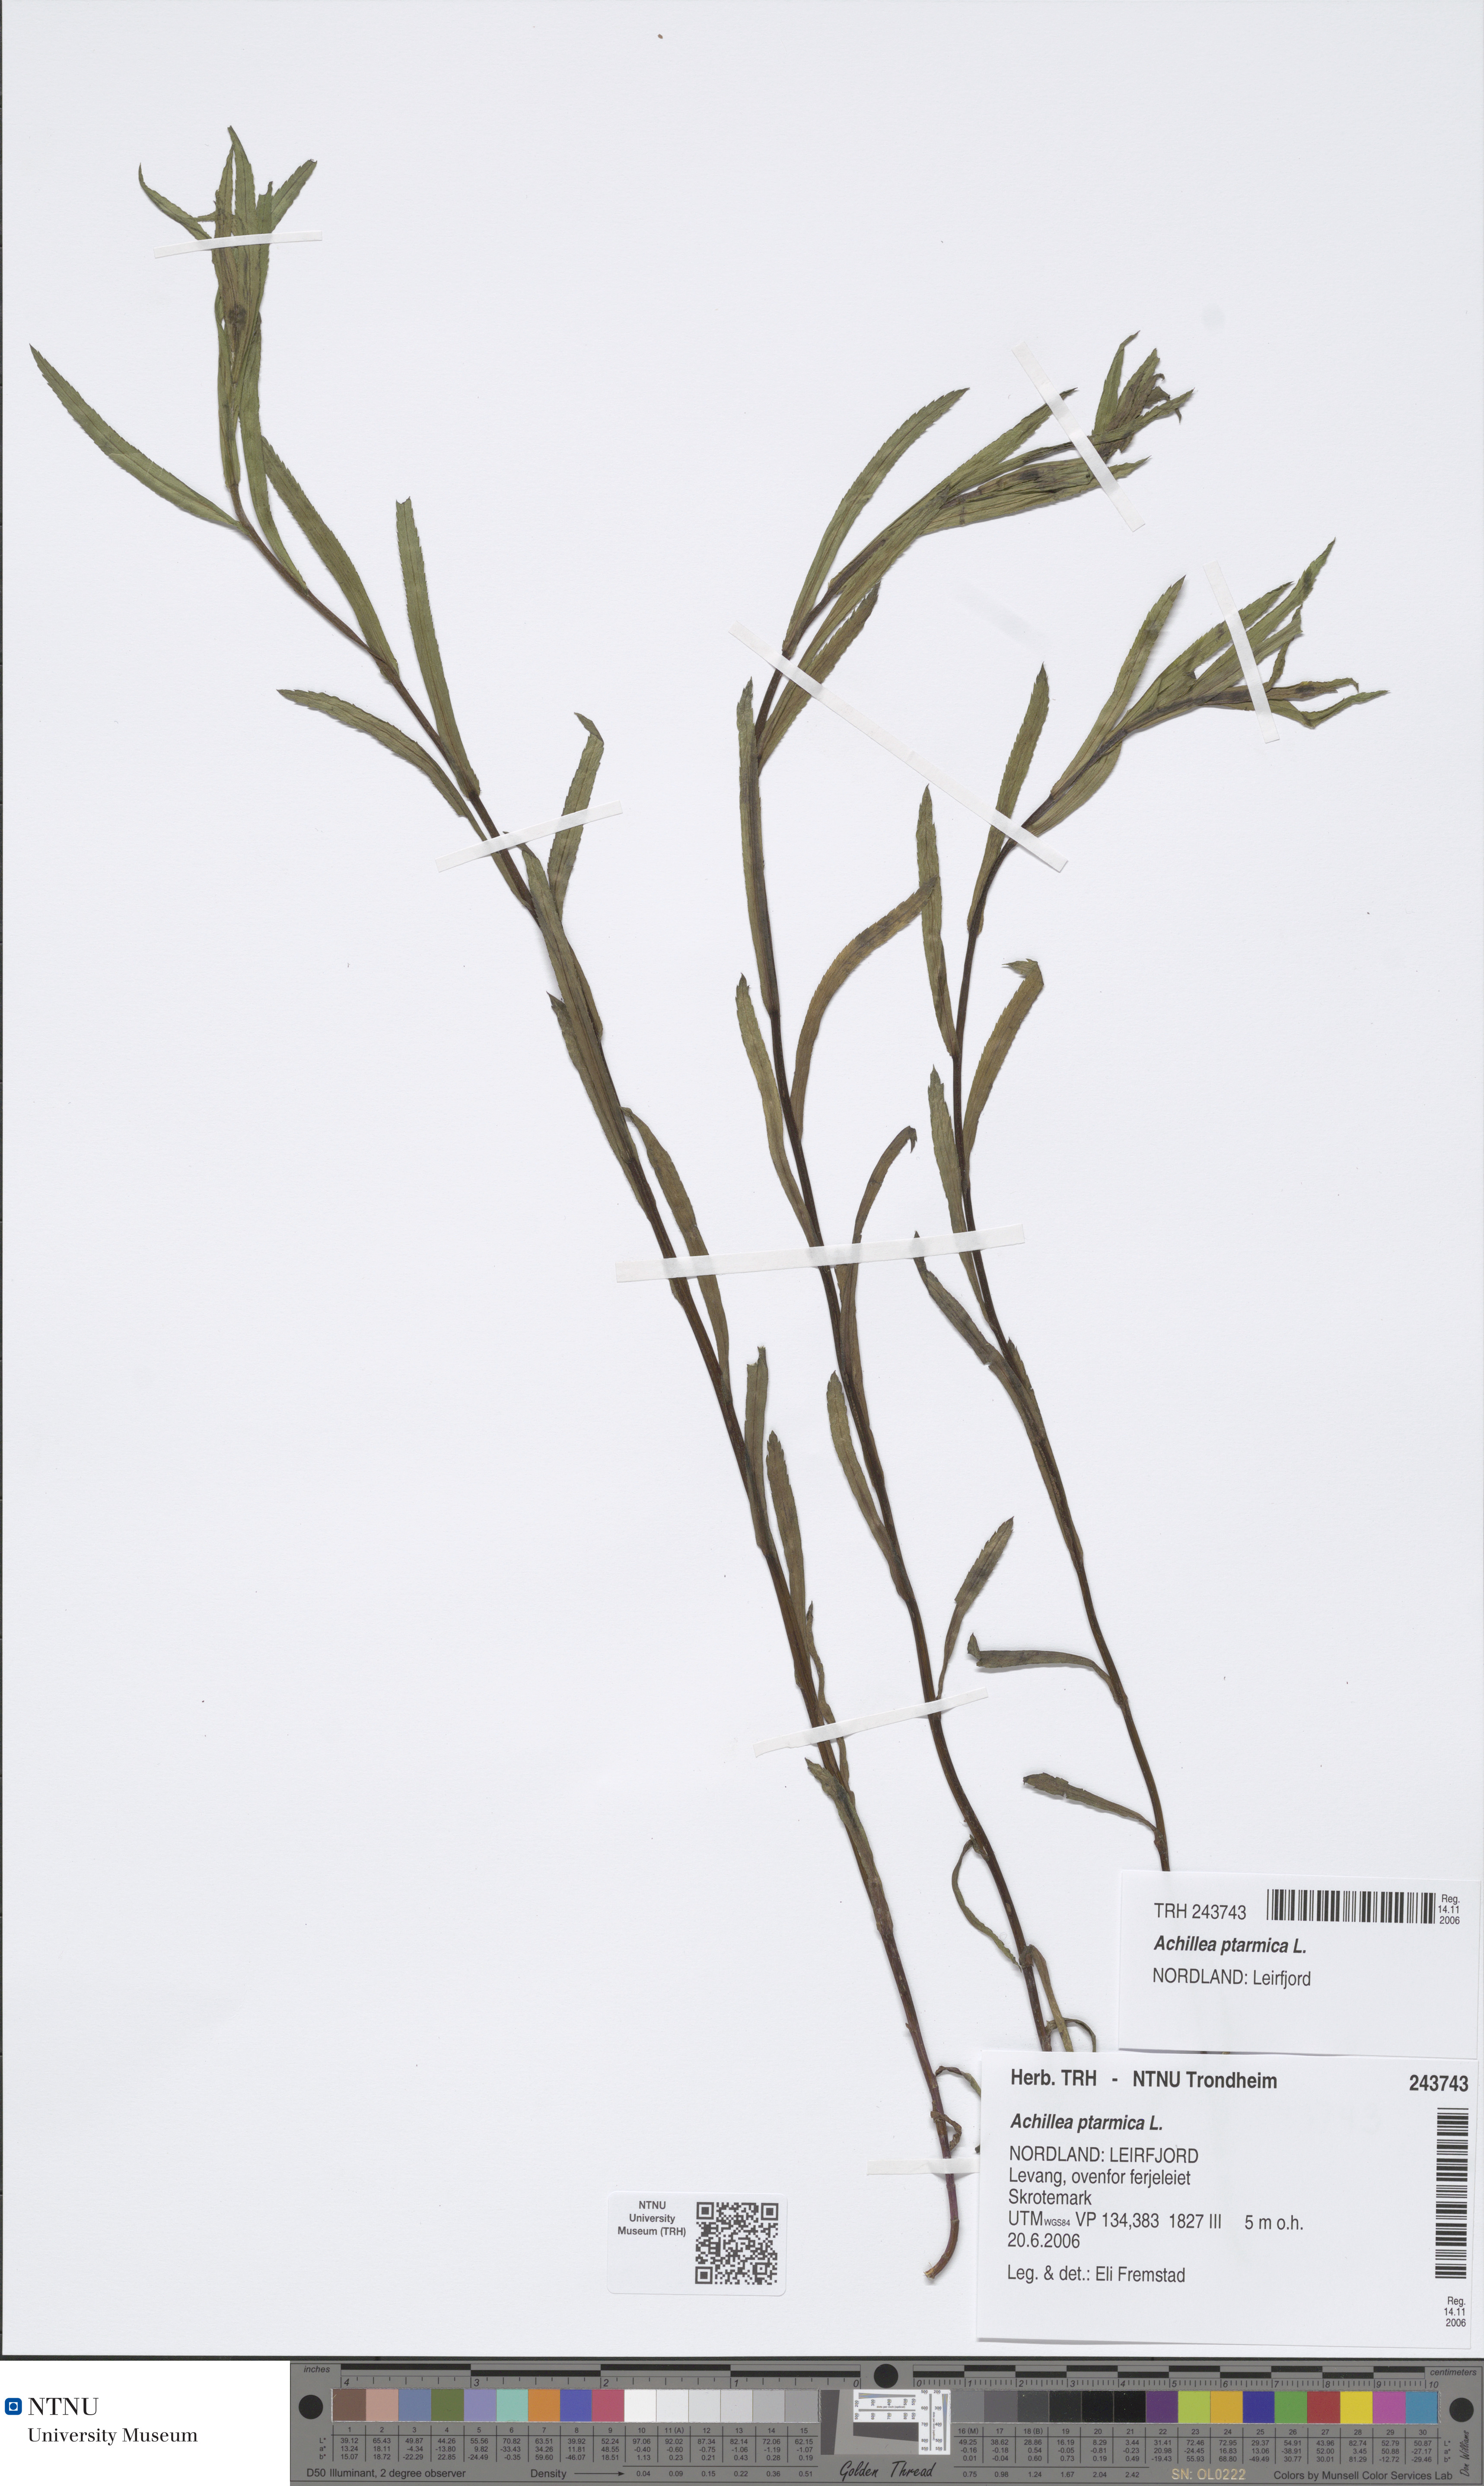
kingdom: Plantae
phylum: Tracheophyta
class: Magnoliopsida
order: Asterales
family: Asteraceae
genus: Achillea
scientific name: Achillea ptarmica
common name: Sneezeweed
